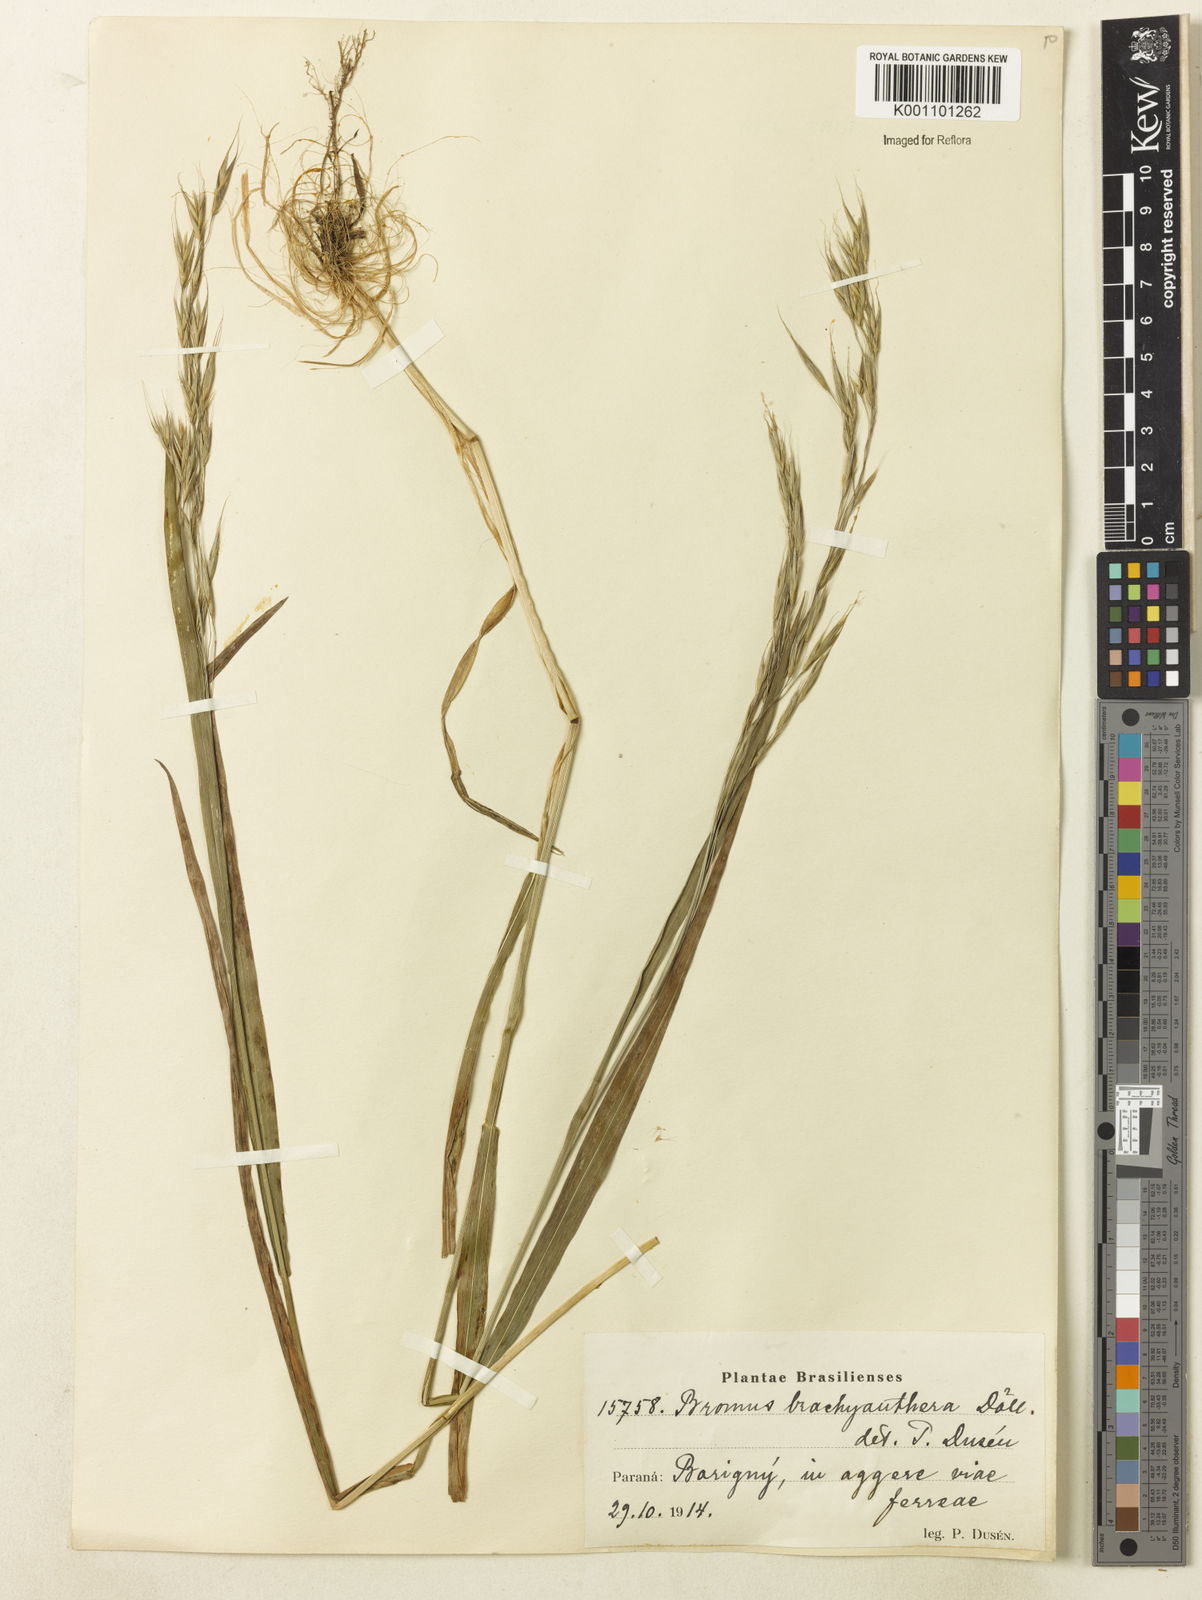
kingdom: Plantae
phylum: Tracheophyta
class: Liliopsida
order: Poales
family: Poaceae
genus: Bromus
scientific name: Bromus
